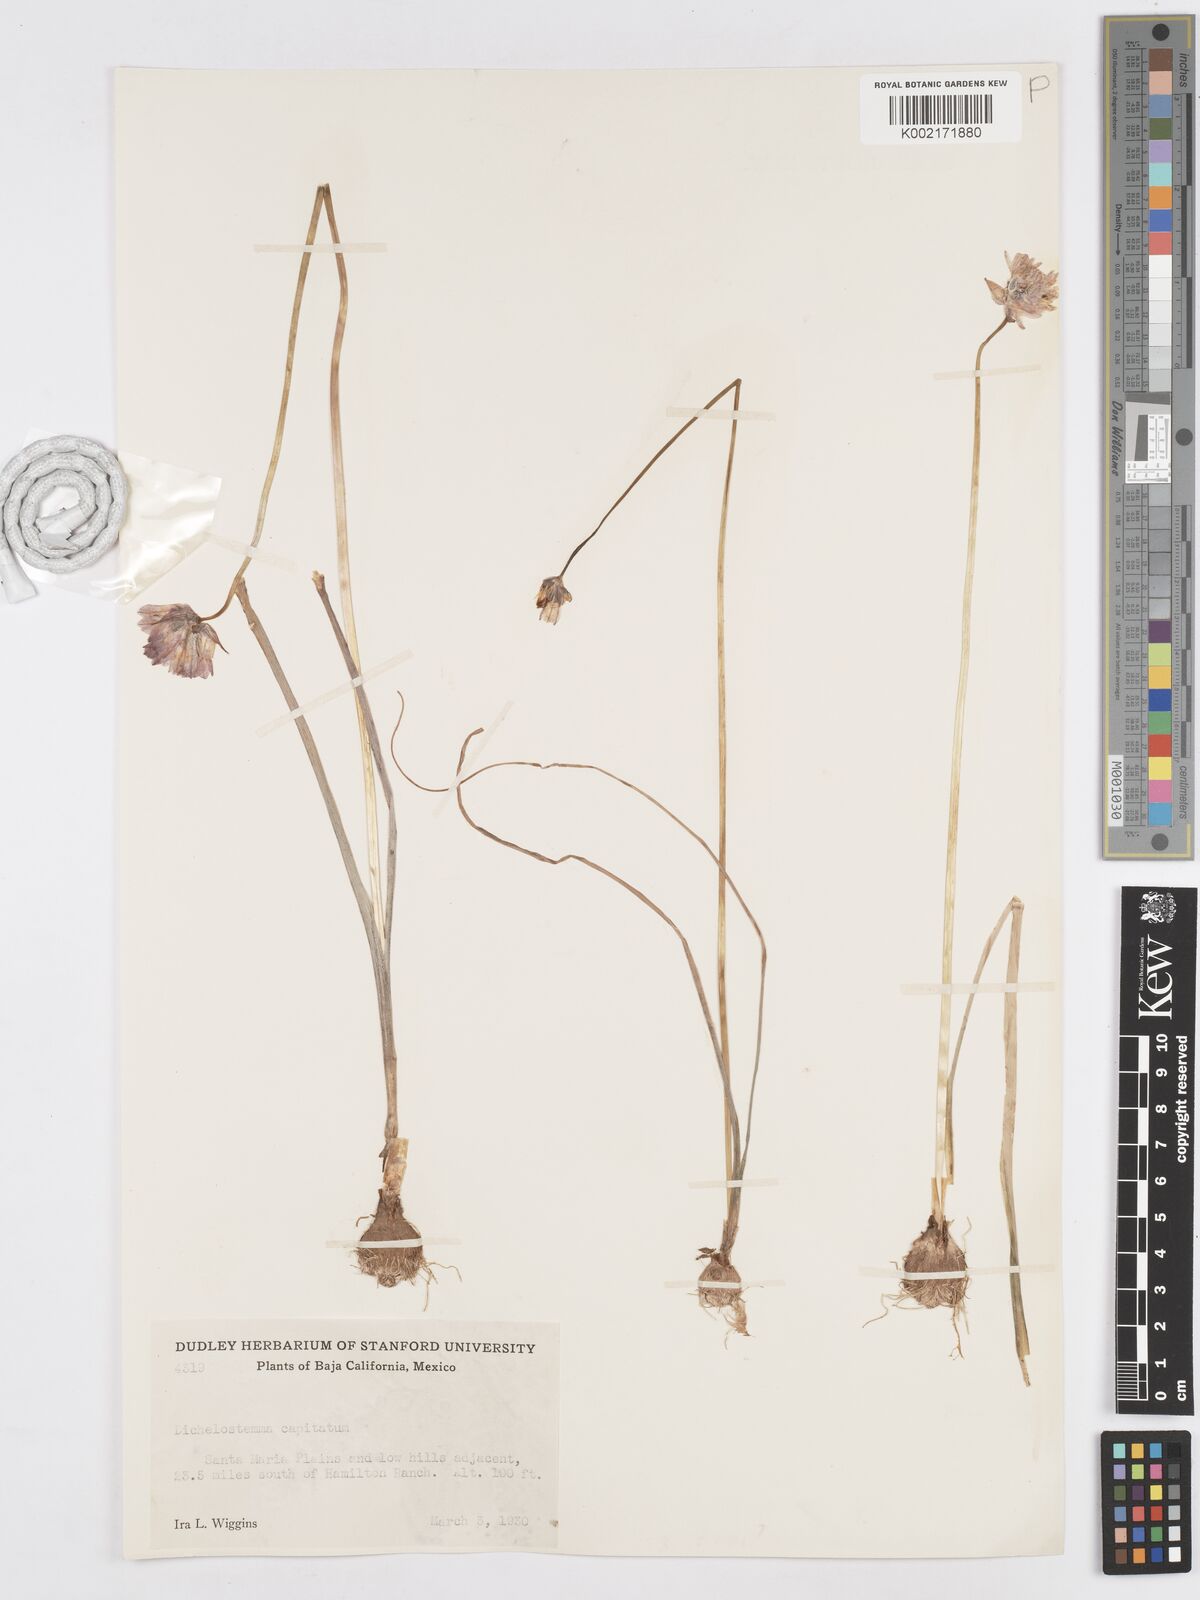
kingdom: Plantae
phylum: Tracheophyta
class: Liliopsida
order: Asparagales
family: Asparagaceae
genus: Dichelostemma
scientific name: Dichelostemma congestum
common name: Fork-tooth ookow
